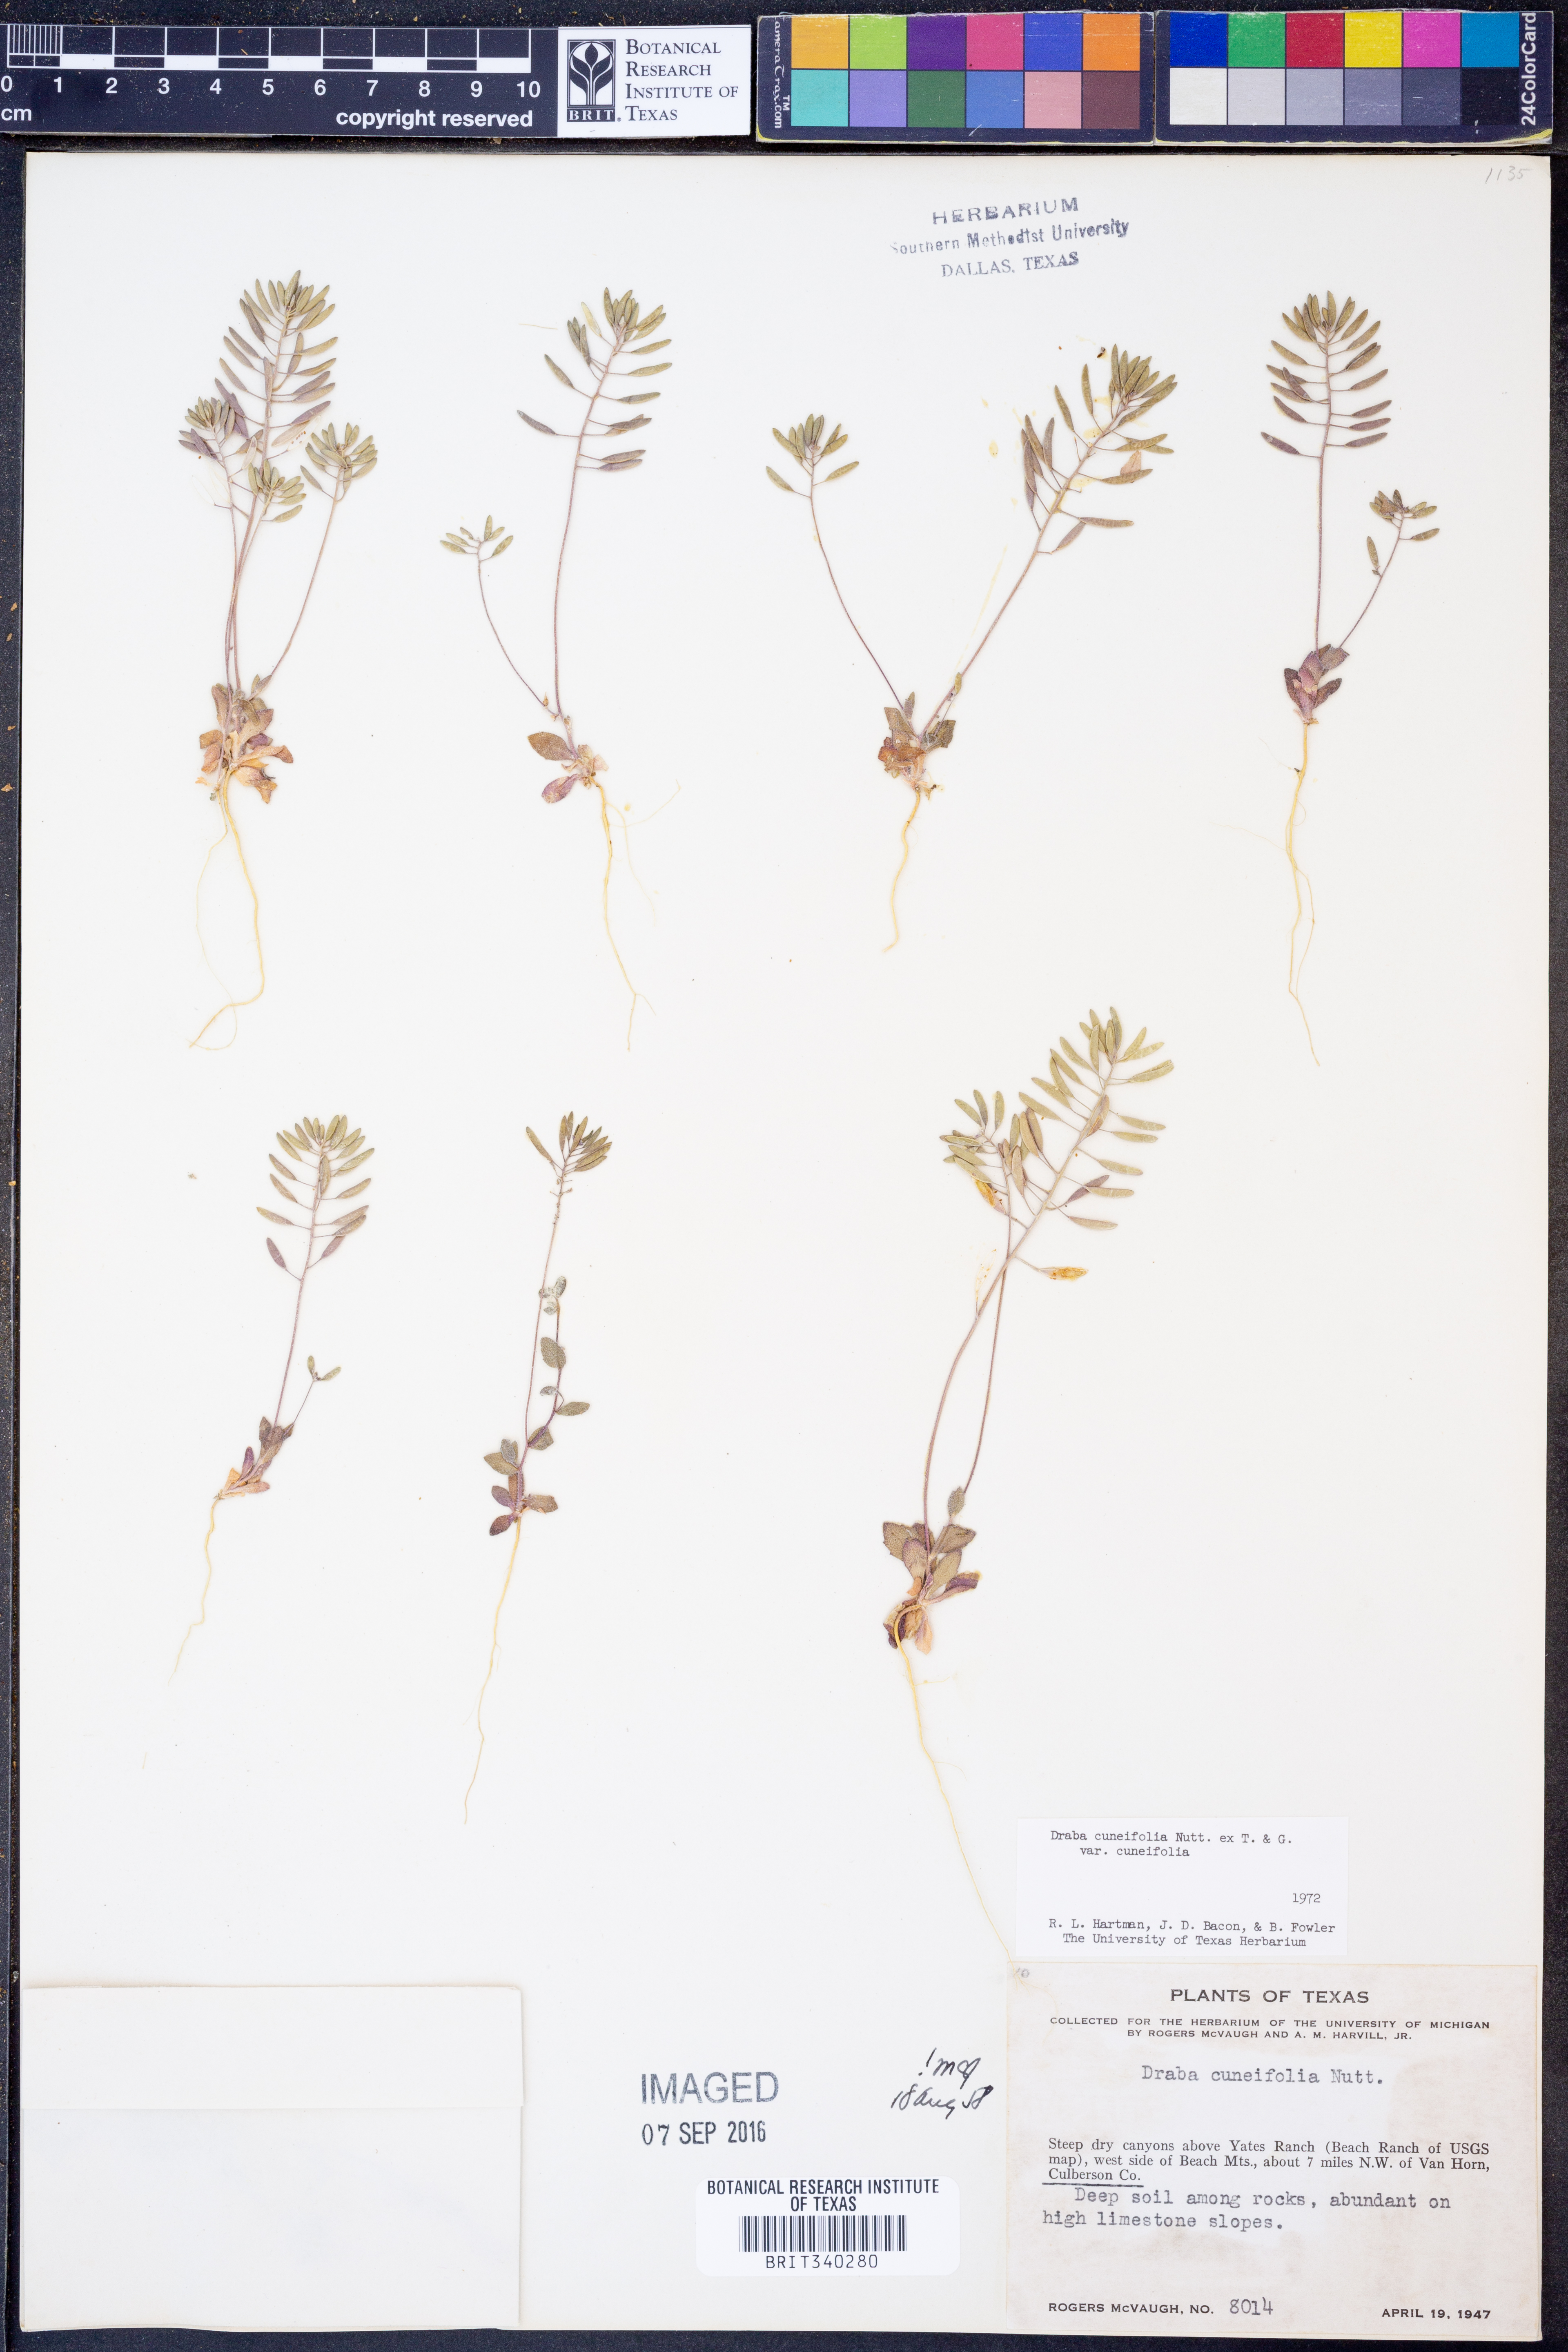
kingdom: Plantae
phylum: Tracheophyta
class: Magnoliopsida
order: Brassicales
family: Brassicaceae
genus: Tomostima
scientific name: Tomostima cuneifolia
